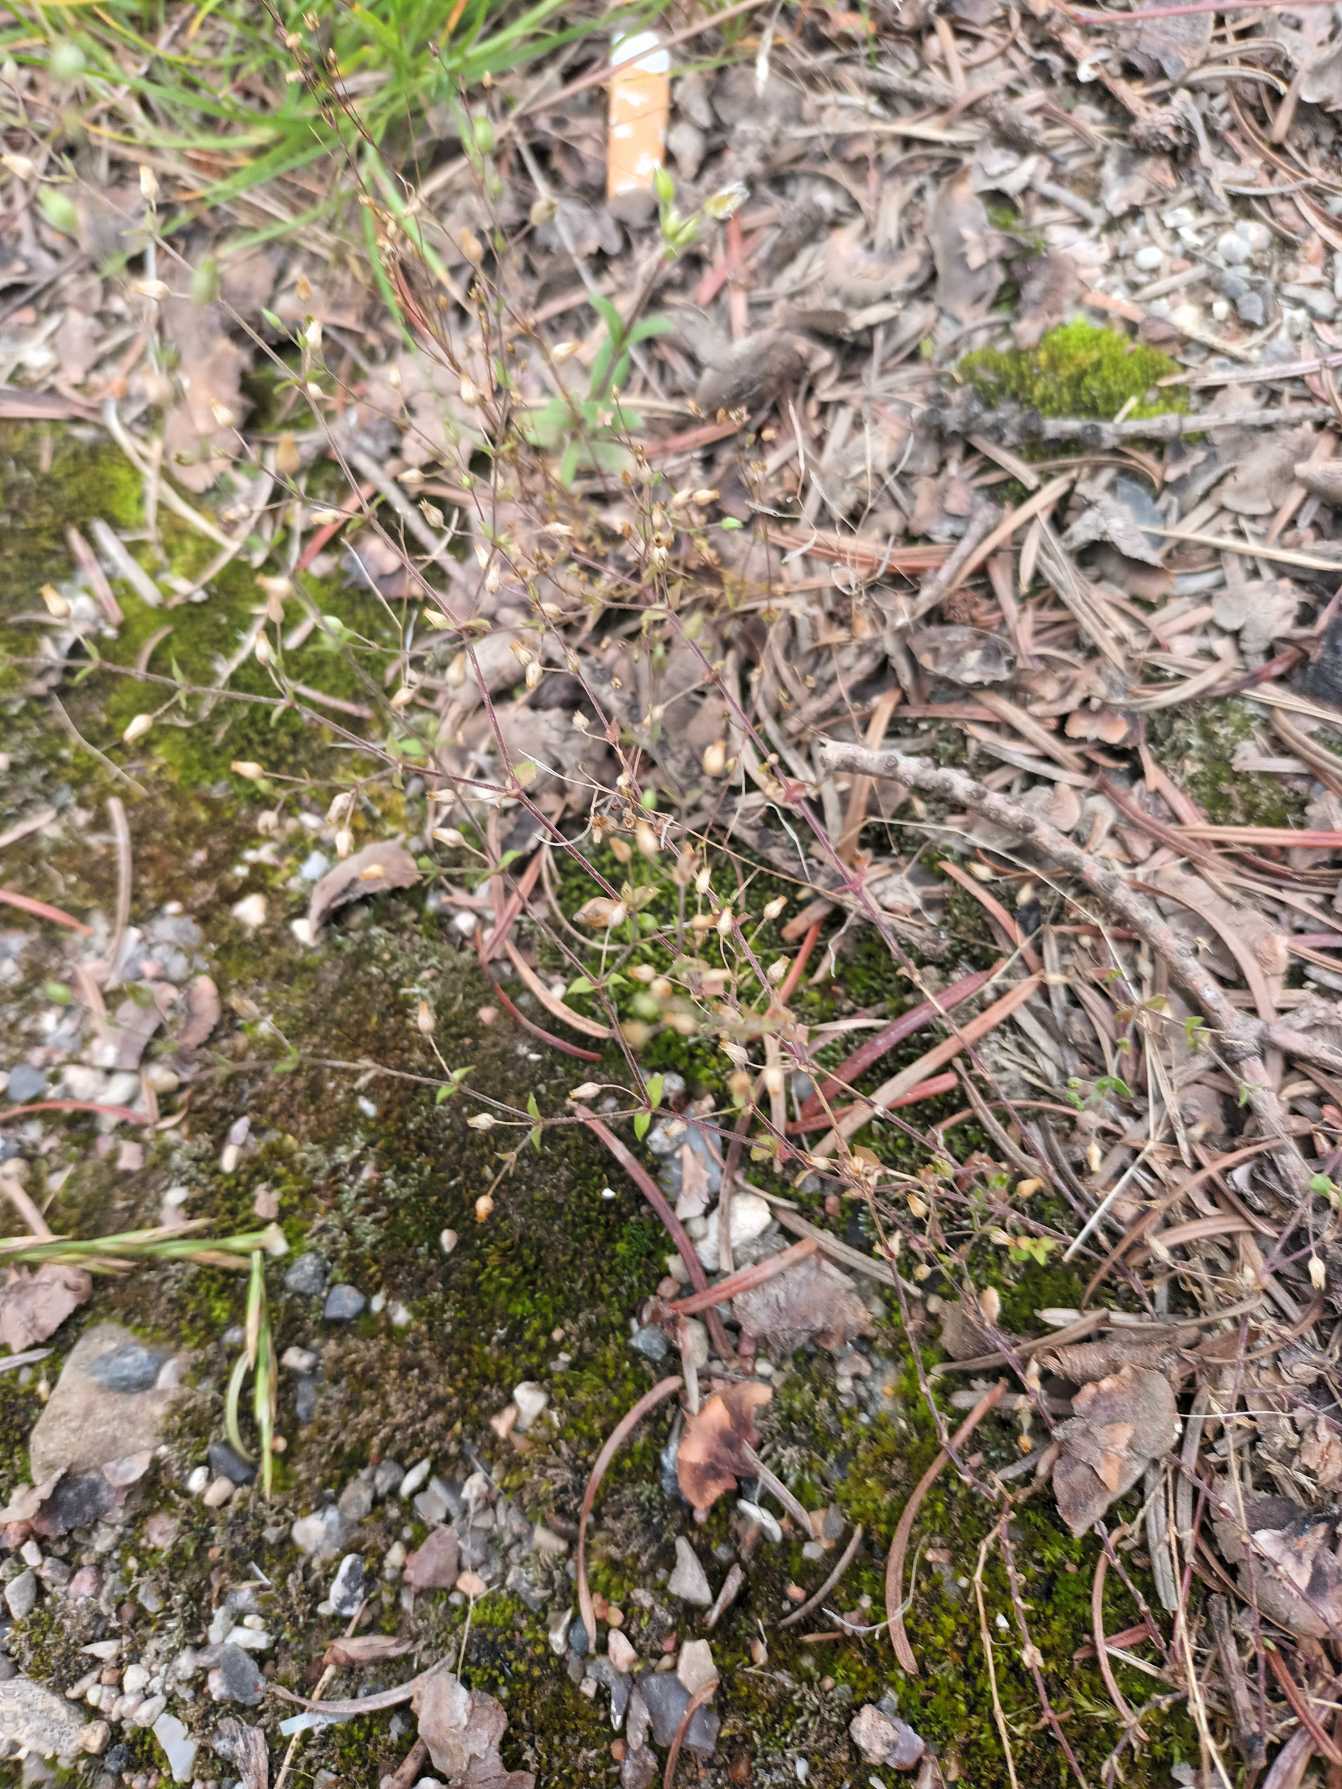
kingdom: Plantae
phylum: Tracheophyta
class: Magnoliopsida
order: Caryophyllales
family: Caryophyllaceae
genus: Arenaria
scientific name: Arenaria leptoclados
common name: Spæd markarve
